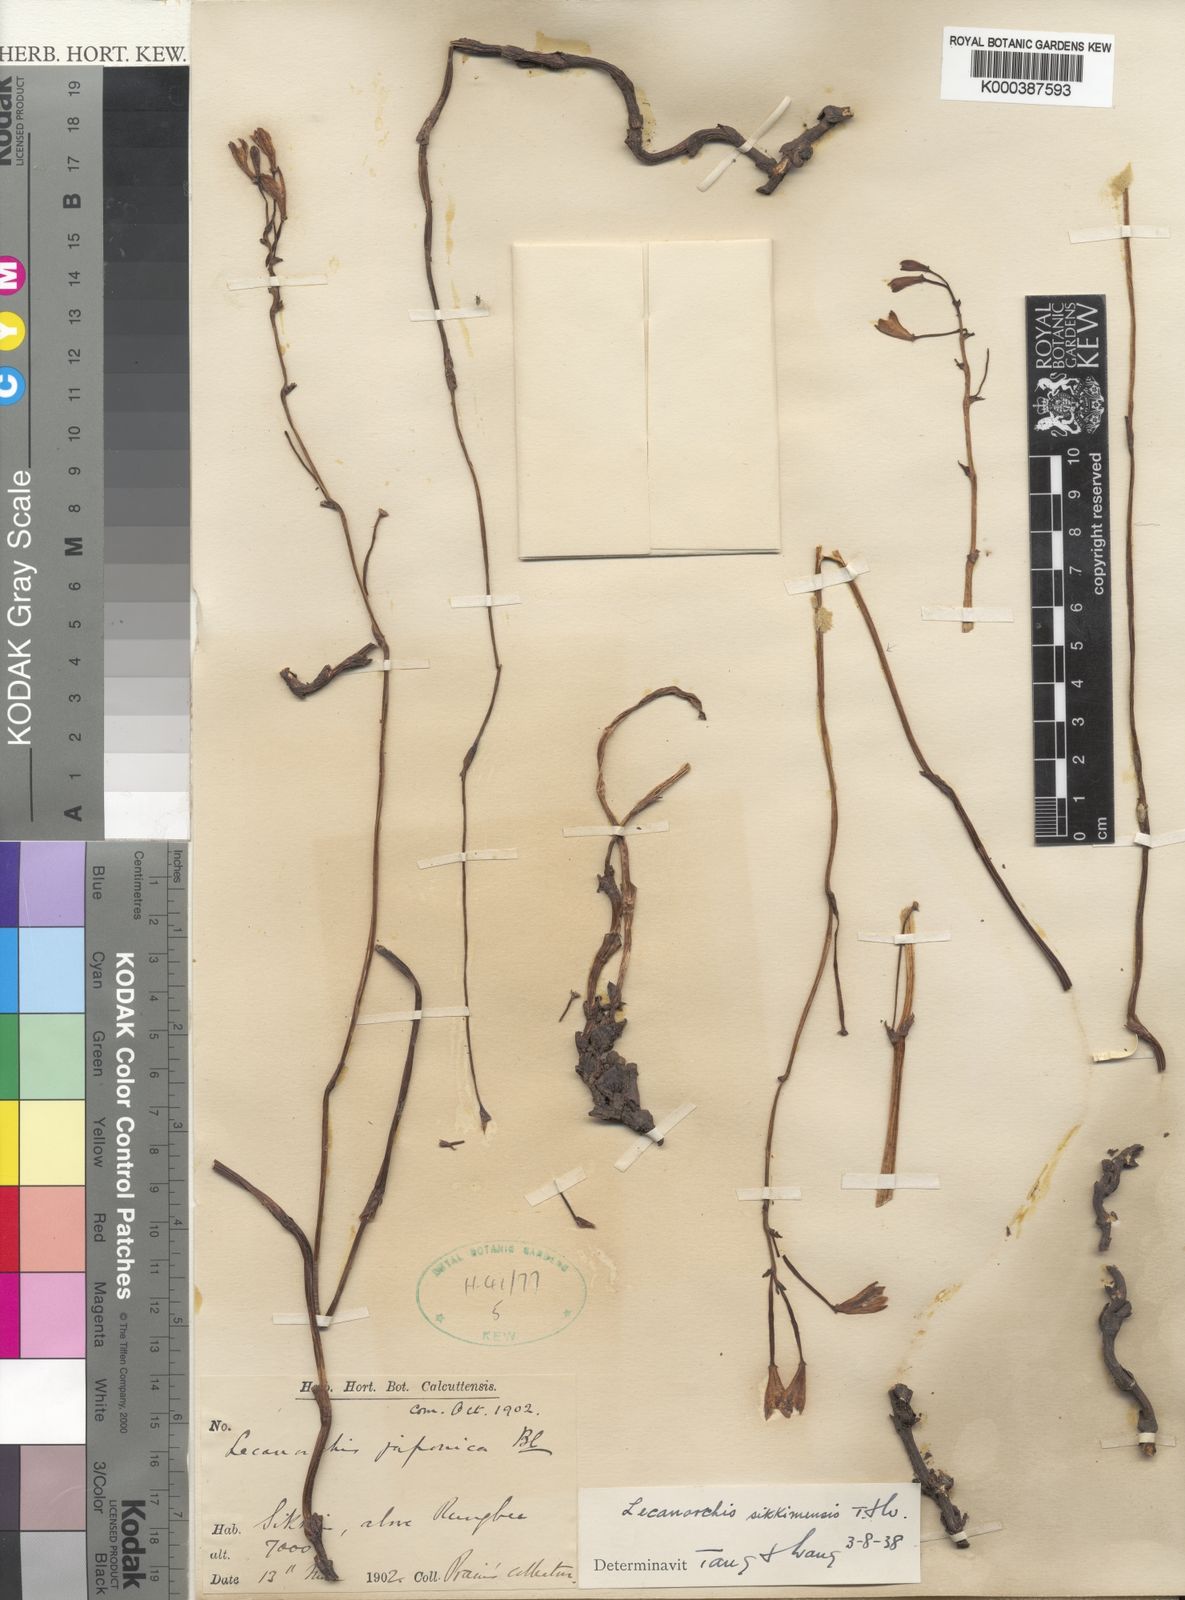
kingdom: Plantae
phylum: Tracheophyta
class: Liliopsida
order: Asparagales
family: Orchidaceae
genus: Lecanorchis
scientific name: Lecanorchis sikkimensis
